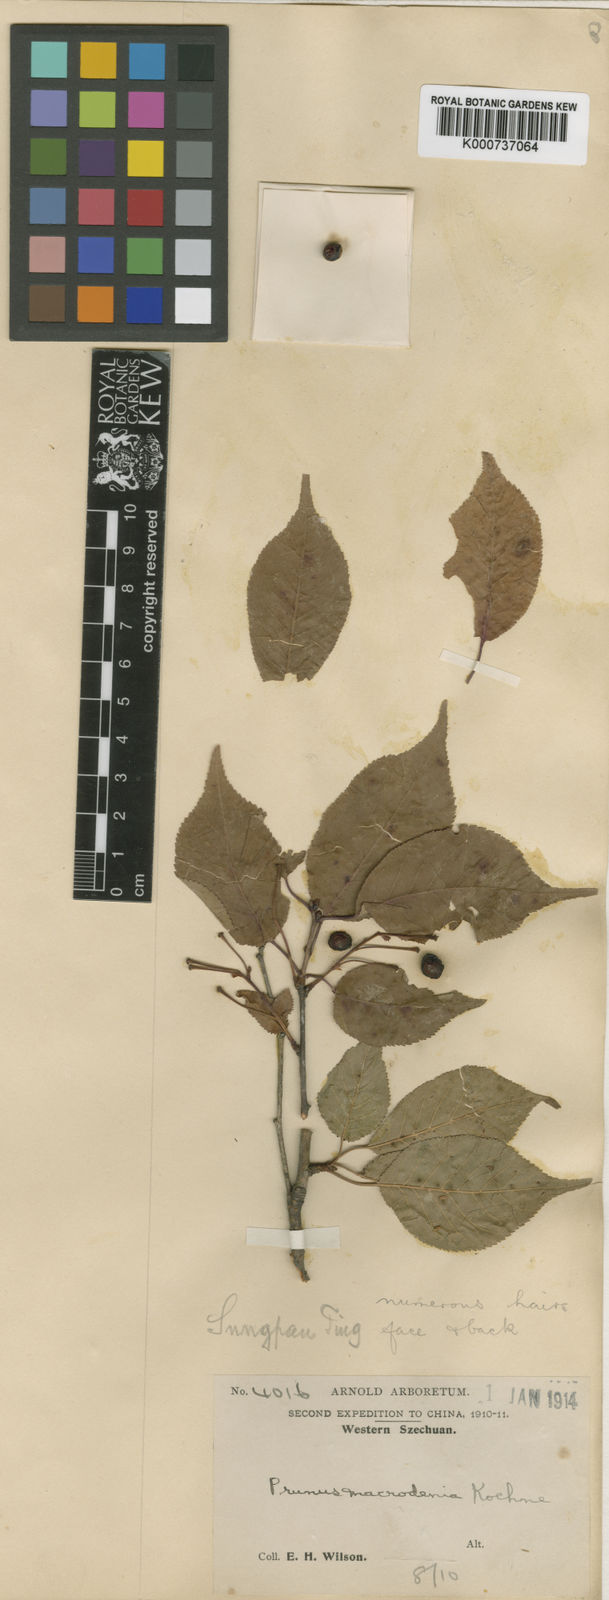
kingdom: Plantae
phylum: Tracheophyta
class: Magnoliopsida
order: Rosales
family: Rosaceae
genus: Prunus
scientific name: Prunus conadenia
